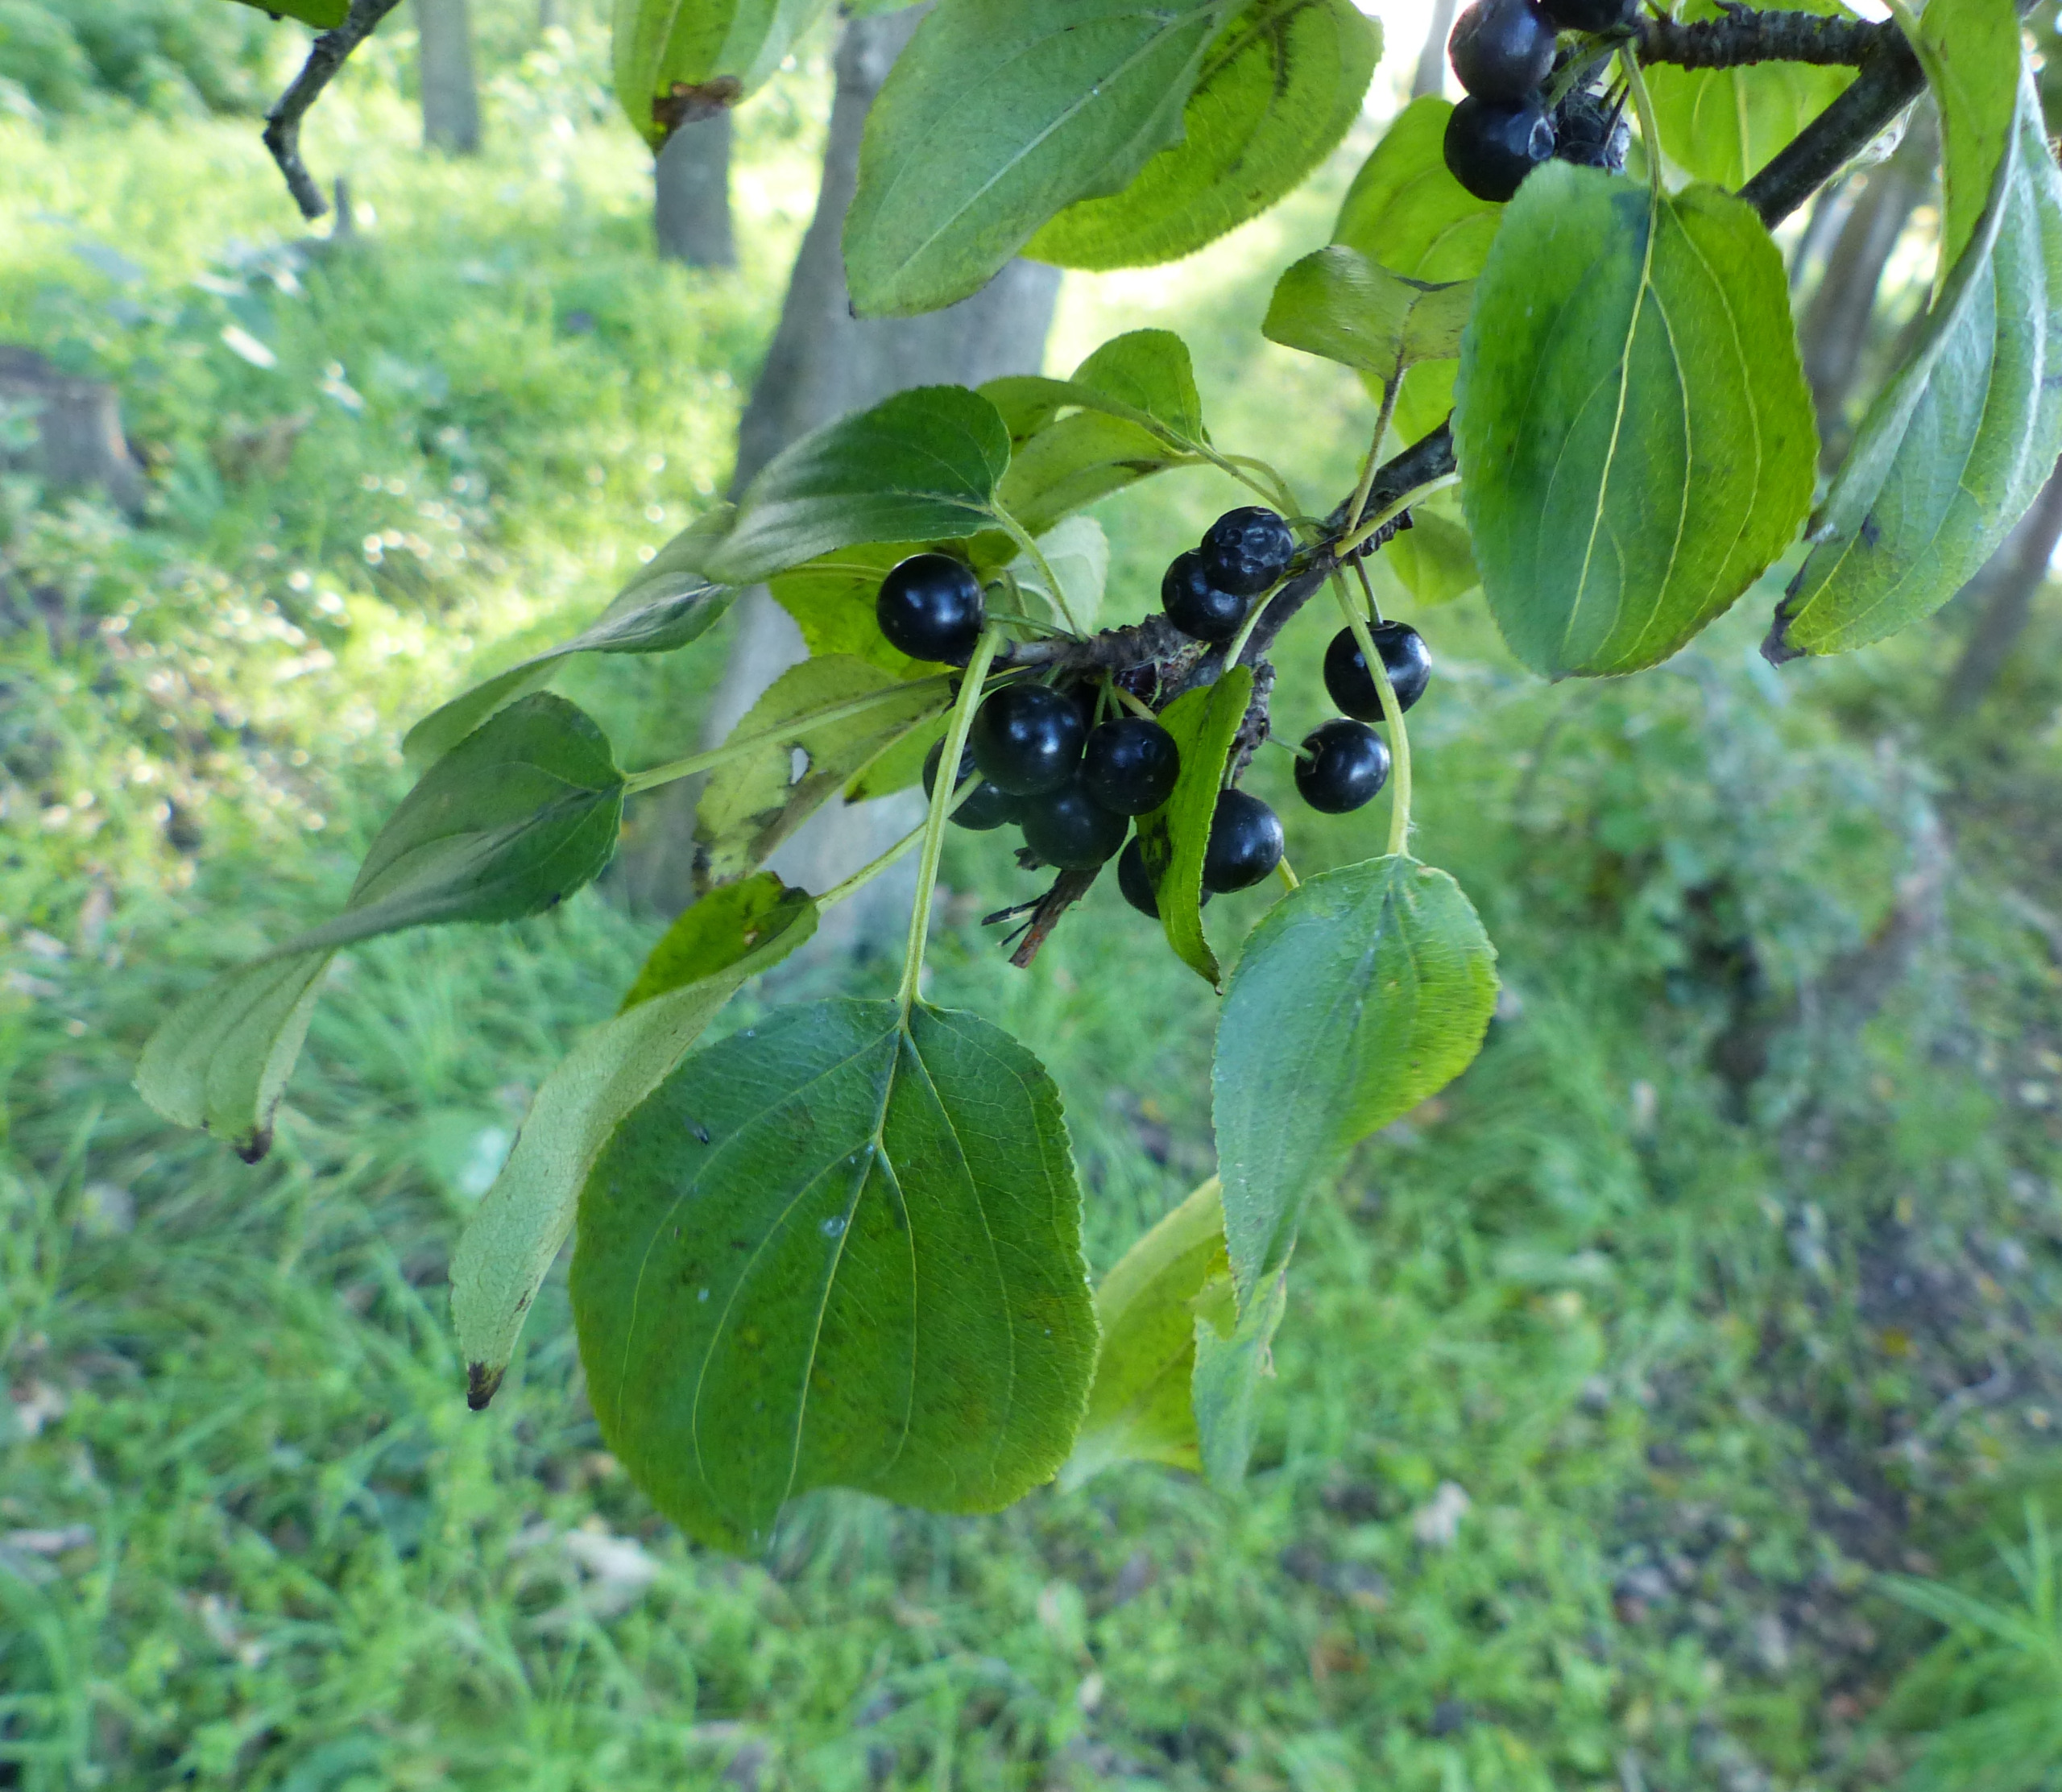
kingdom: Plantae
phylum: Tracheophyta
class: Magnoliopsida
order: Rosales
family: Rhamnaceae
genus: Rhamnus
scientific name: Rhamnus cathartica
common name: Vrietorn
